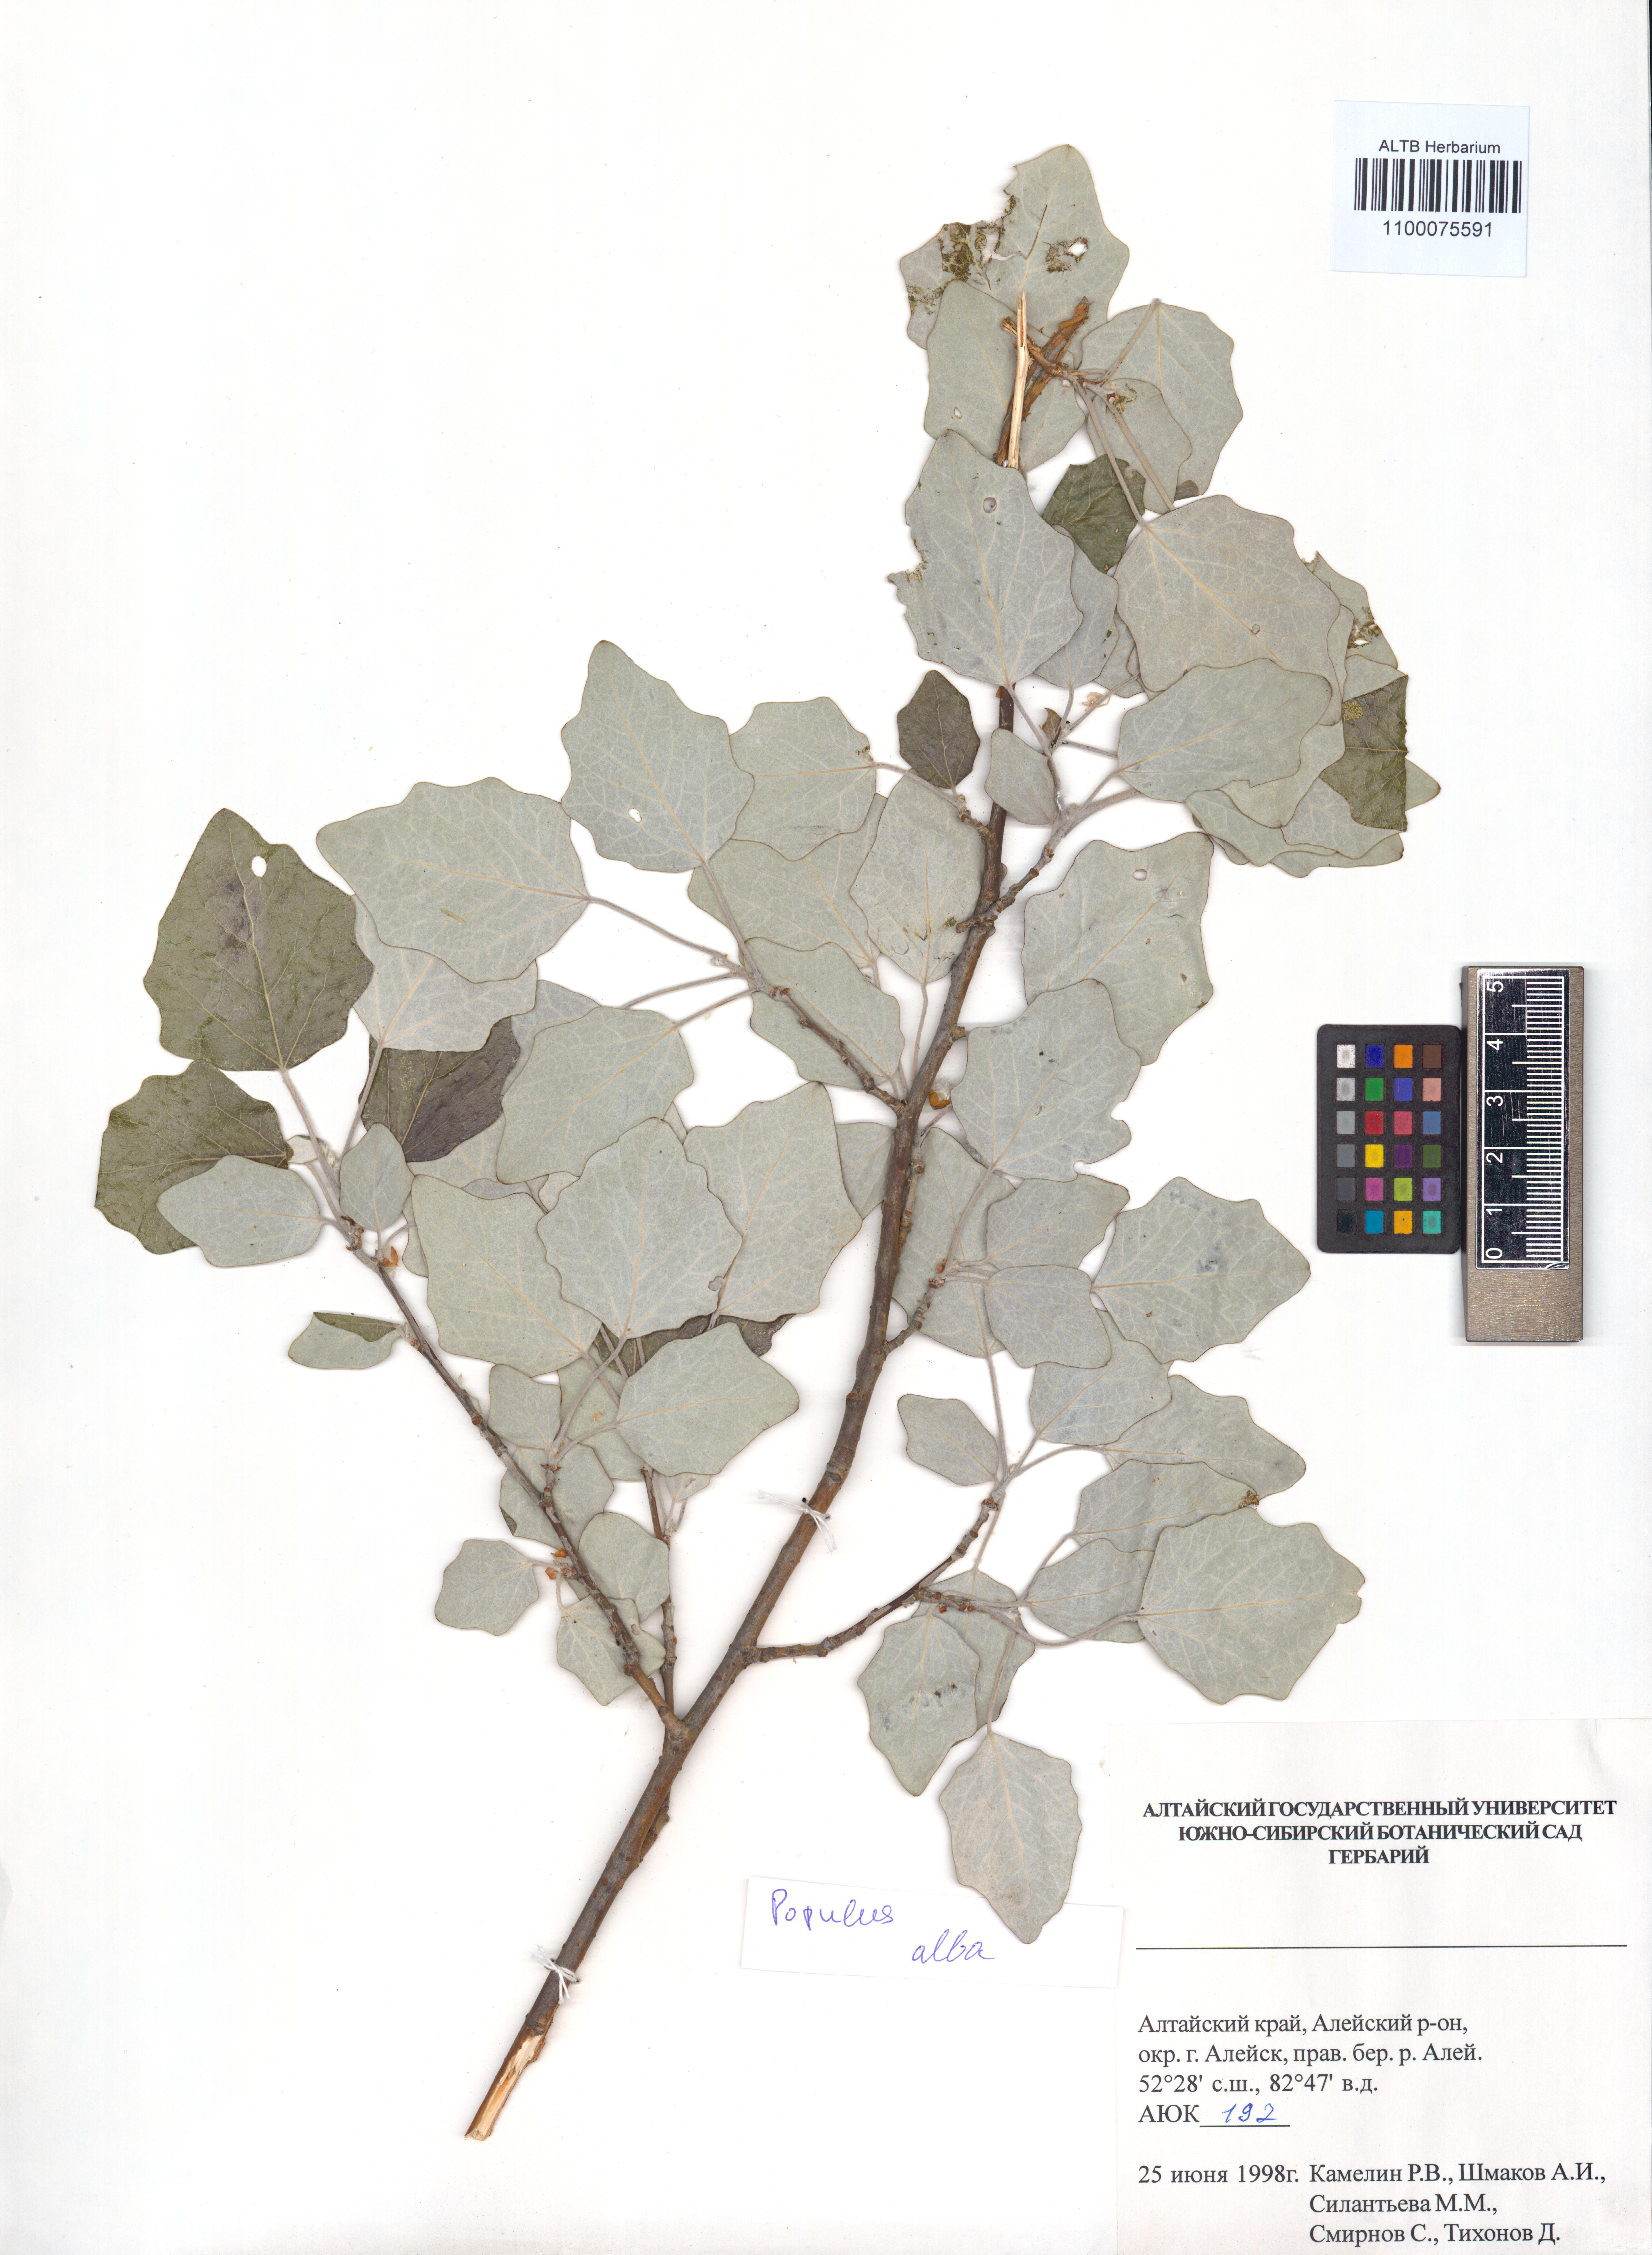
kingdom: Plantae
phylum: Tracheophyta
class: Magnoliopsida
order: Malpighiales
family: Salicaceae
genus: Populus
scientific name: Populus alba
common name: White poplar
